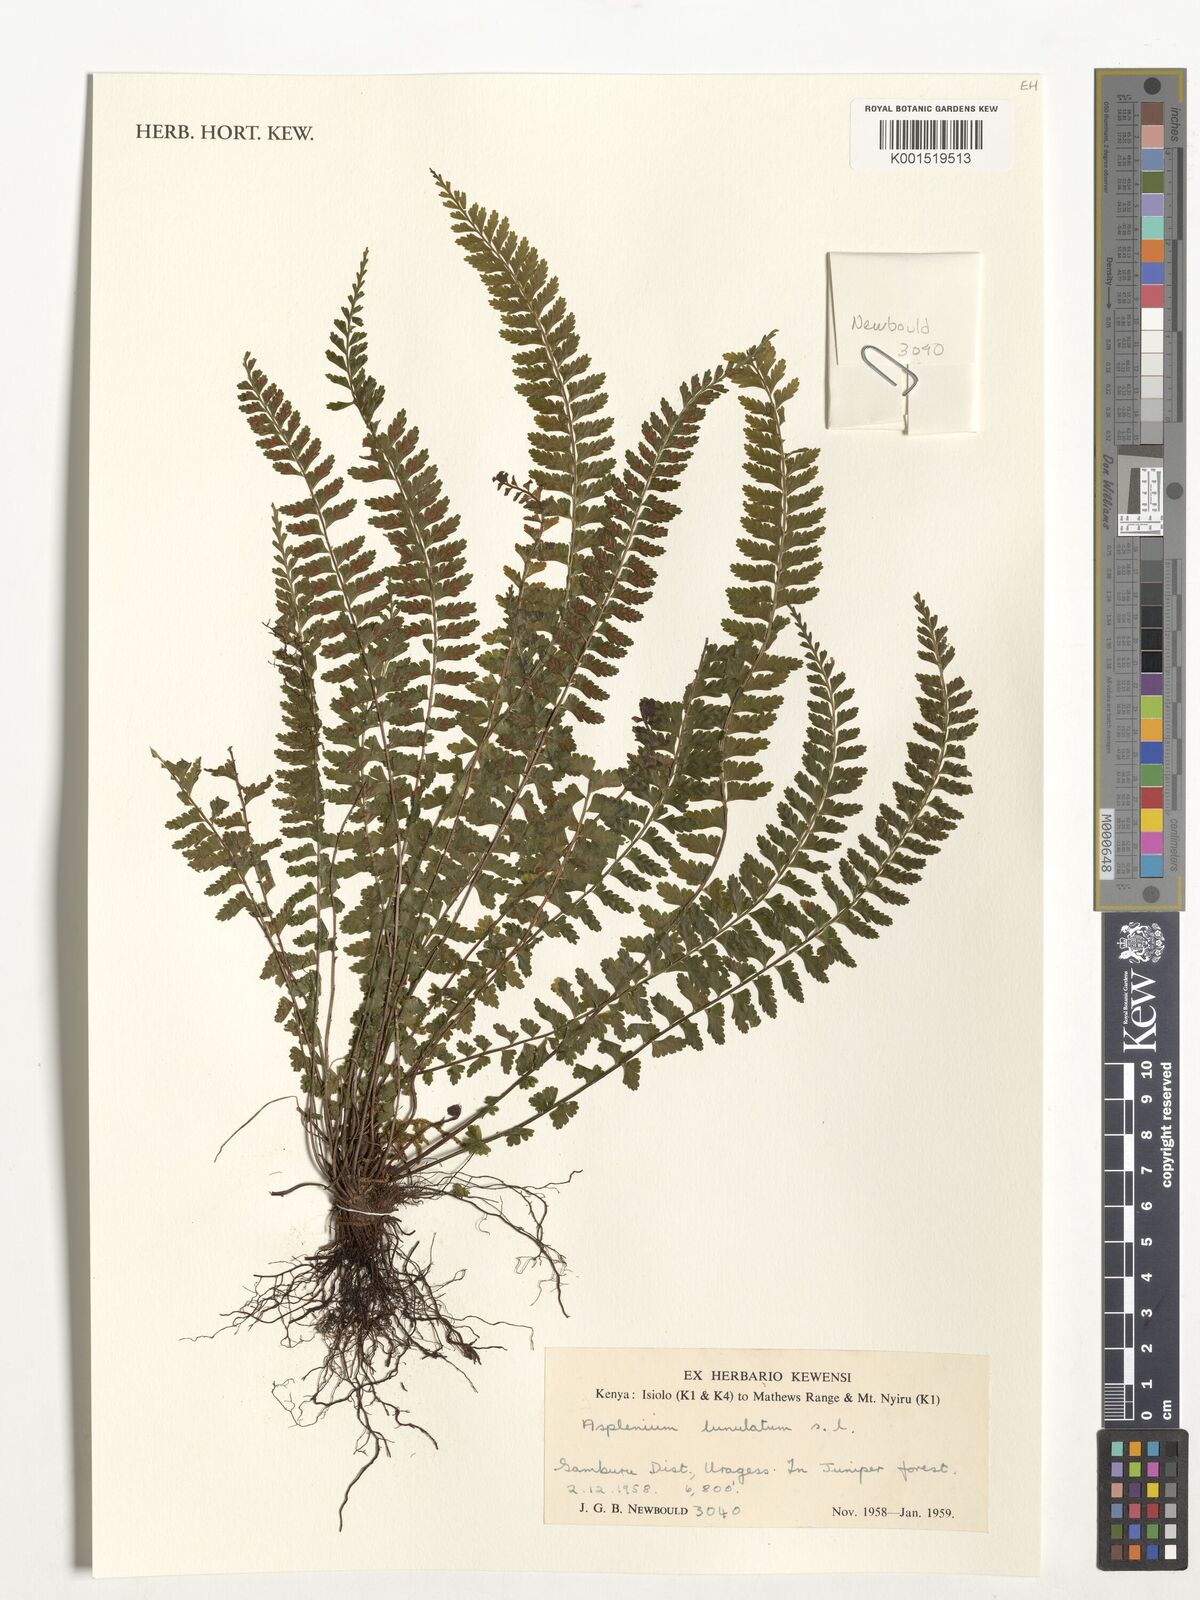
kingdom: Plantae
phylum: Tracheophyta
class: Polypodiopsida
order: Polypodiales
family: Aspleniaceae
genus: Asplenium
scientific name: Asplenium lunulatum
